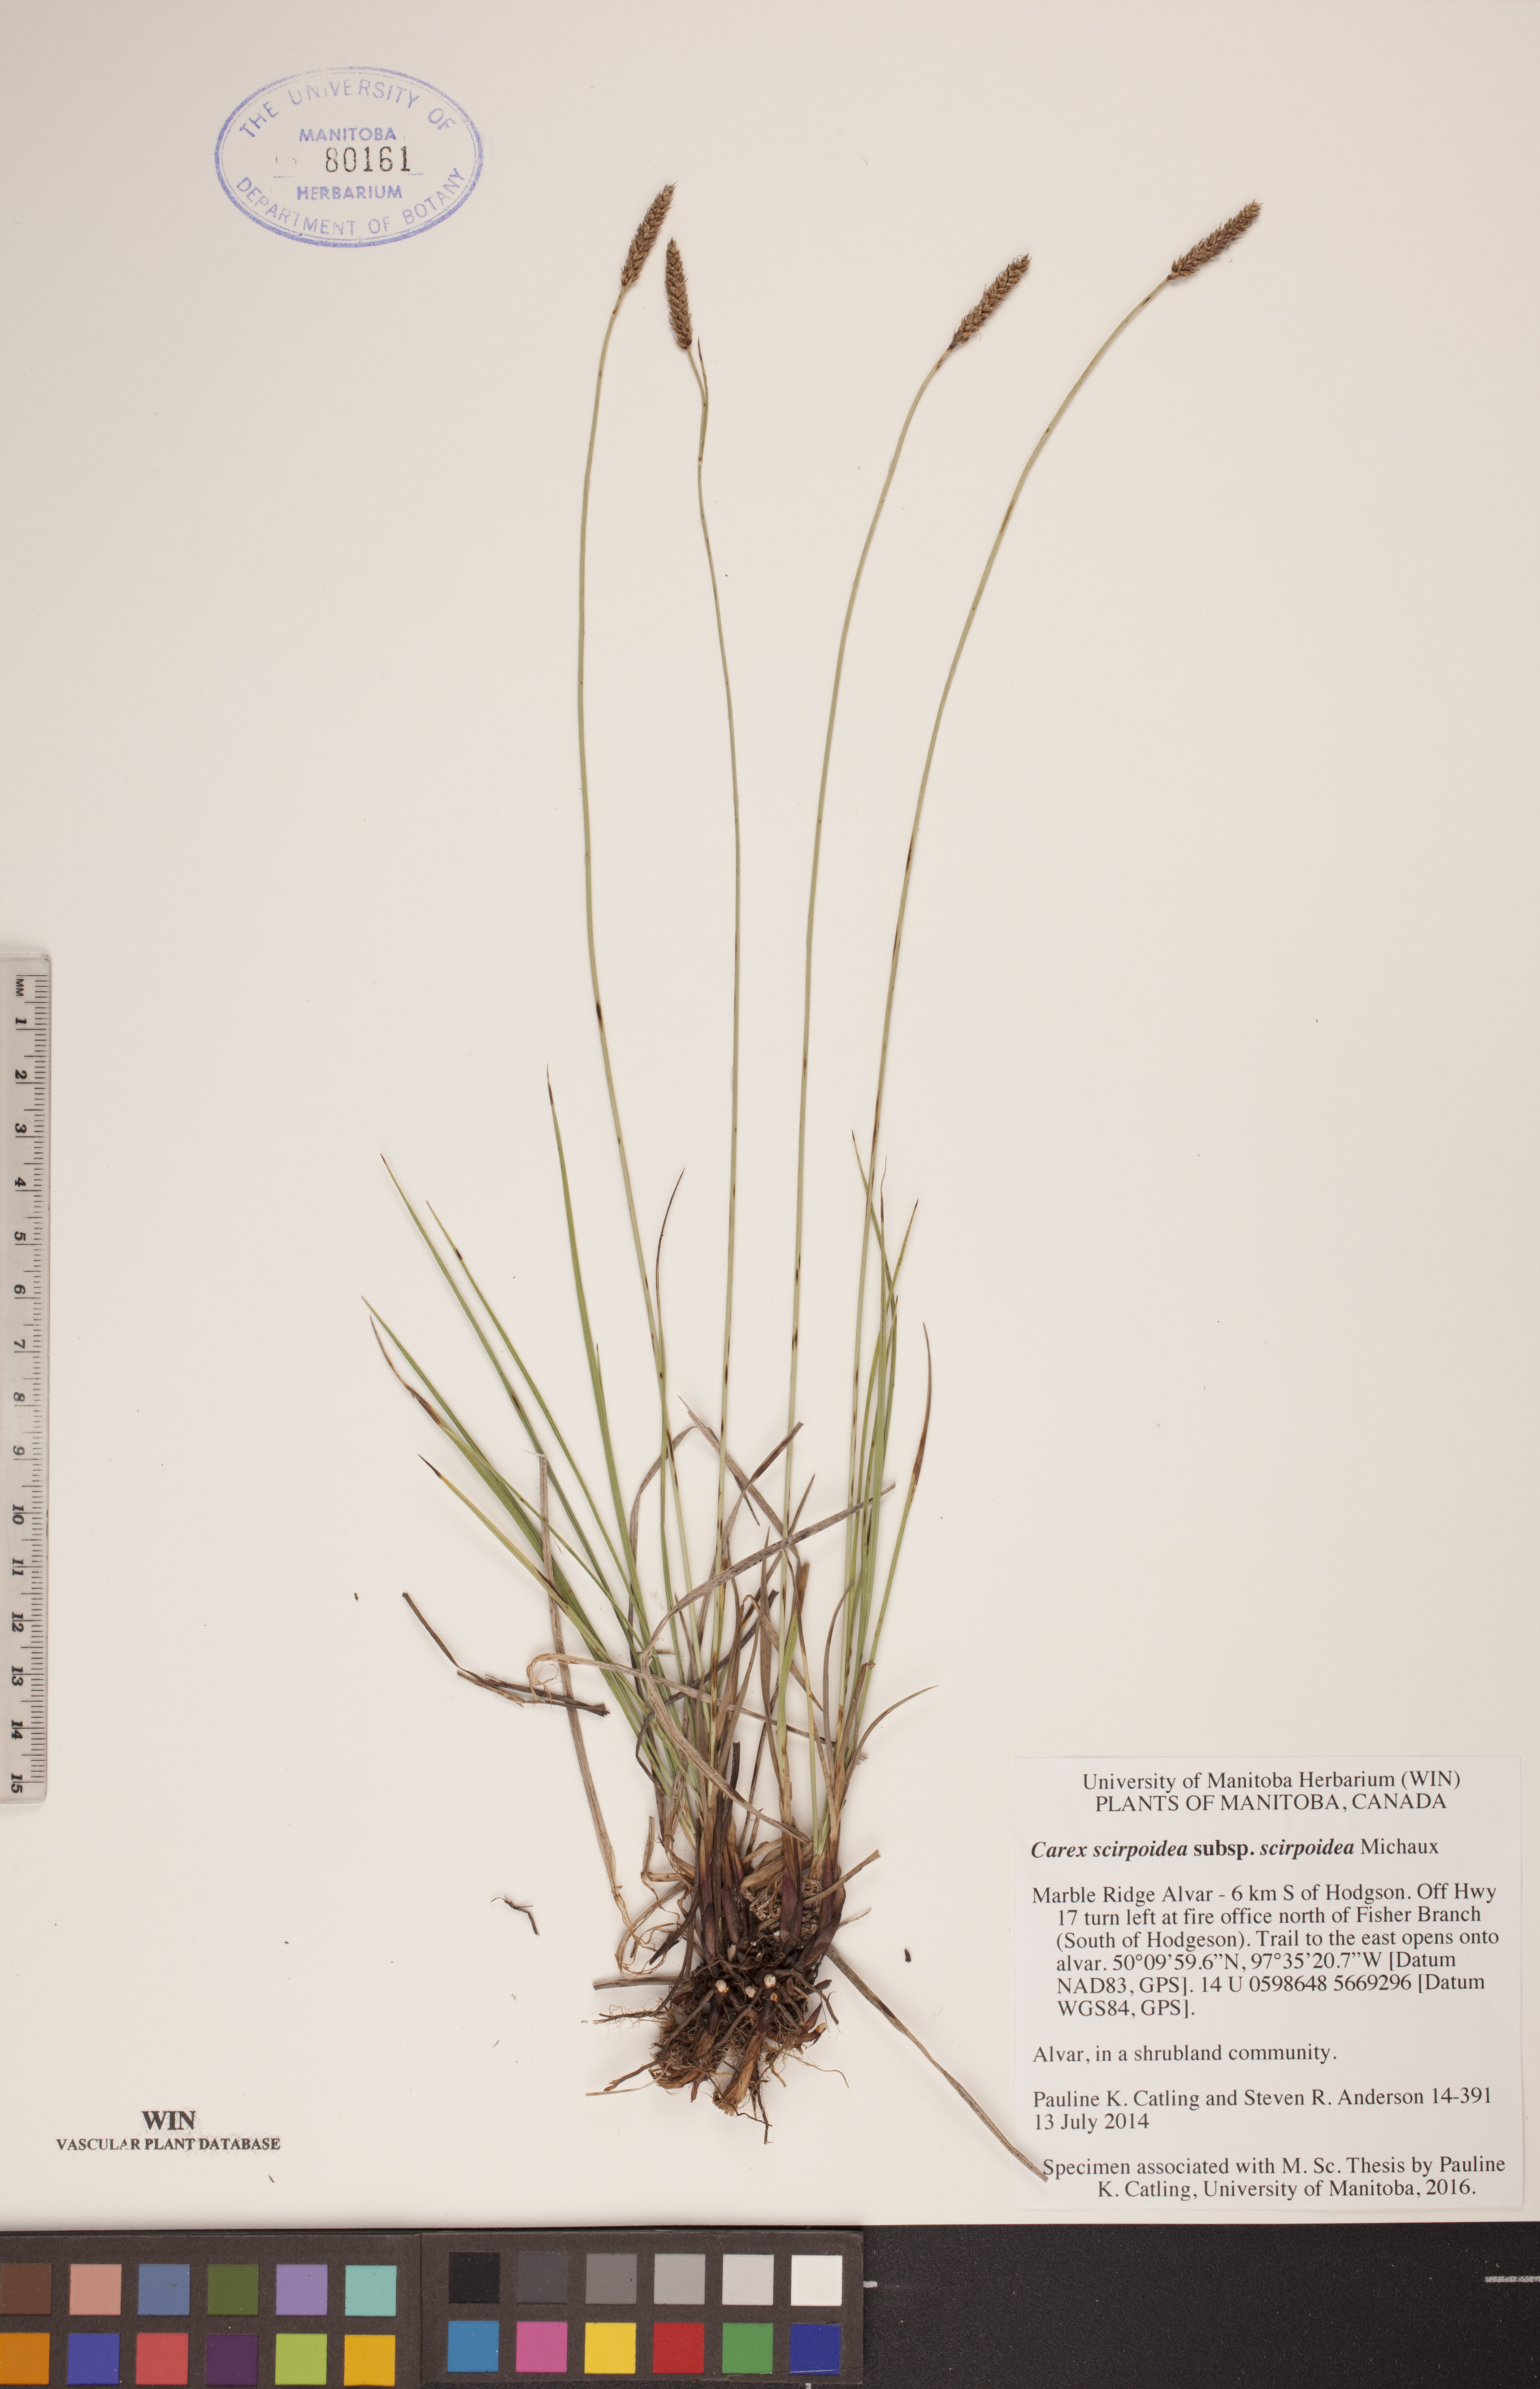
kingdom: Plantae
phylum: Tracheophyta
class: Liliopsida
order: Poales
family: Cyperaceae
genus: Carex
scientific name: Carex scirpoidea
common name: Canada single-spike sedge
